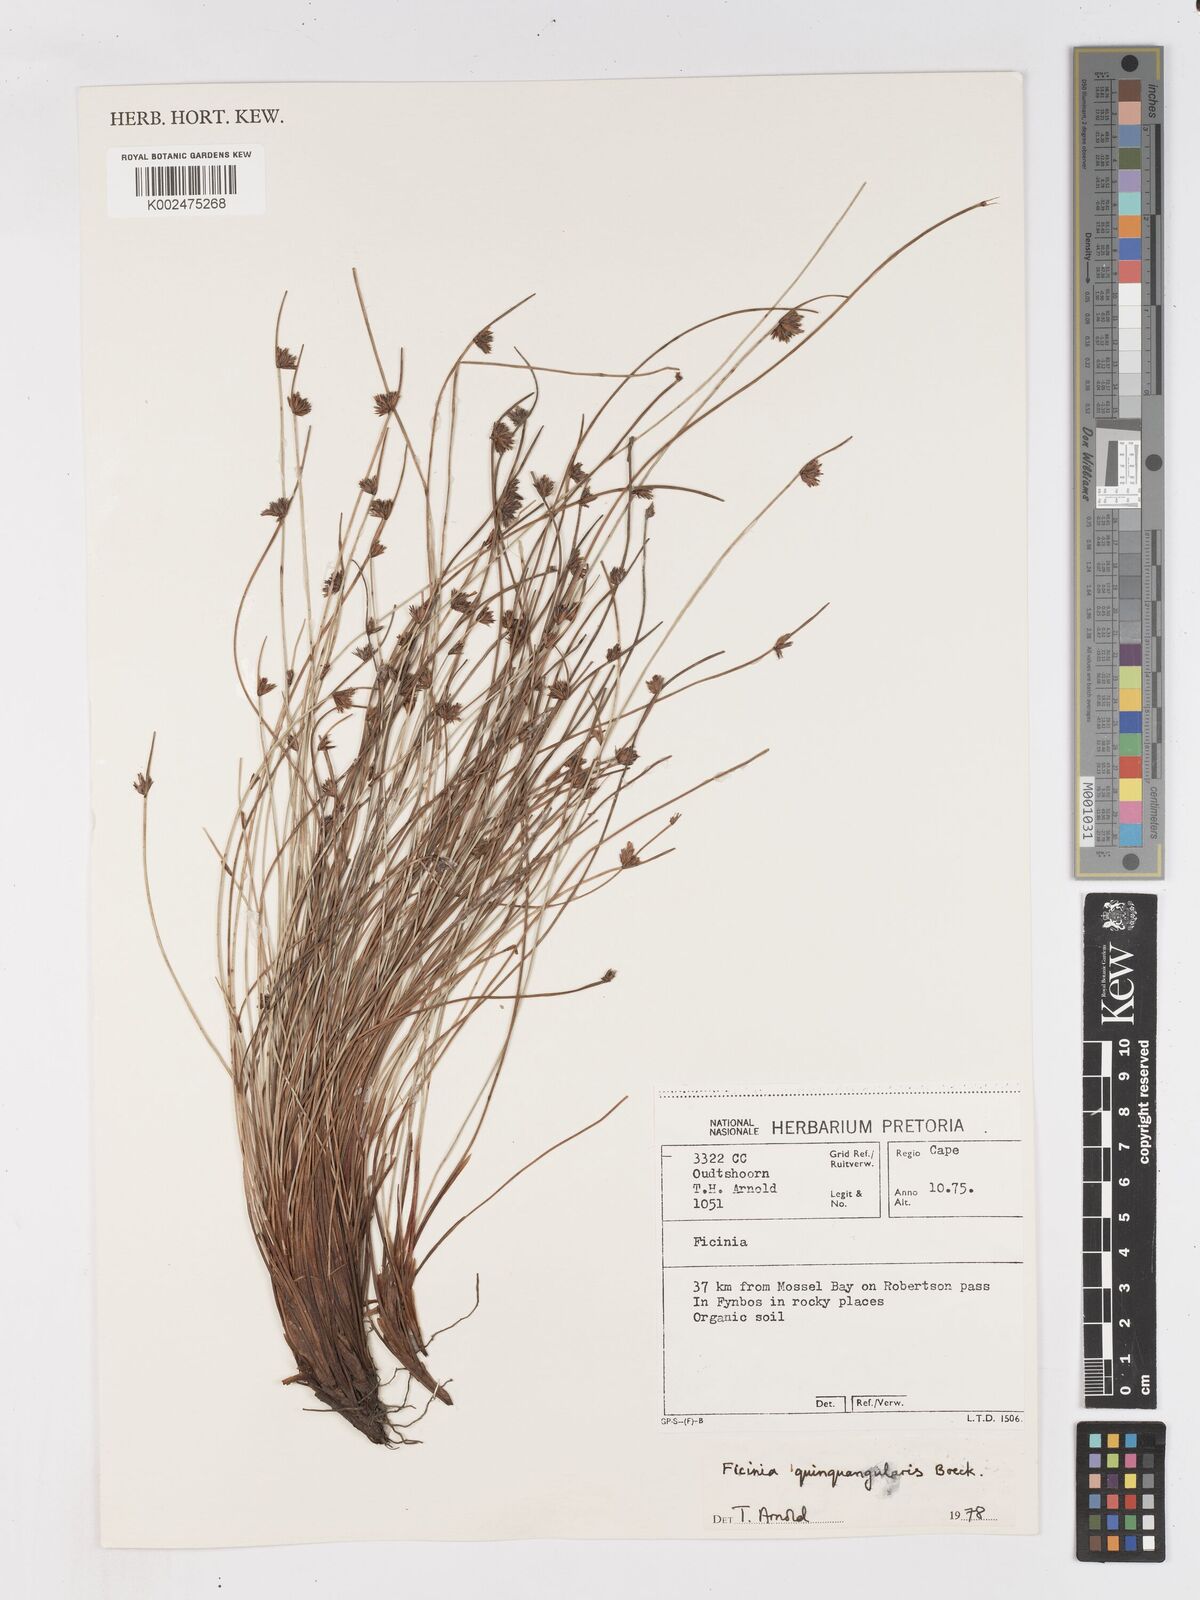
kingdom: Plantae
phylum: Tracheophyta
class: Liliopsida
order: Poales
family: Cyperaceae
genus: Ficinia
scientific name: Ficinia quinquangularis
